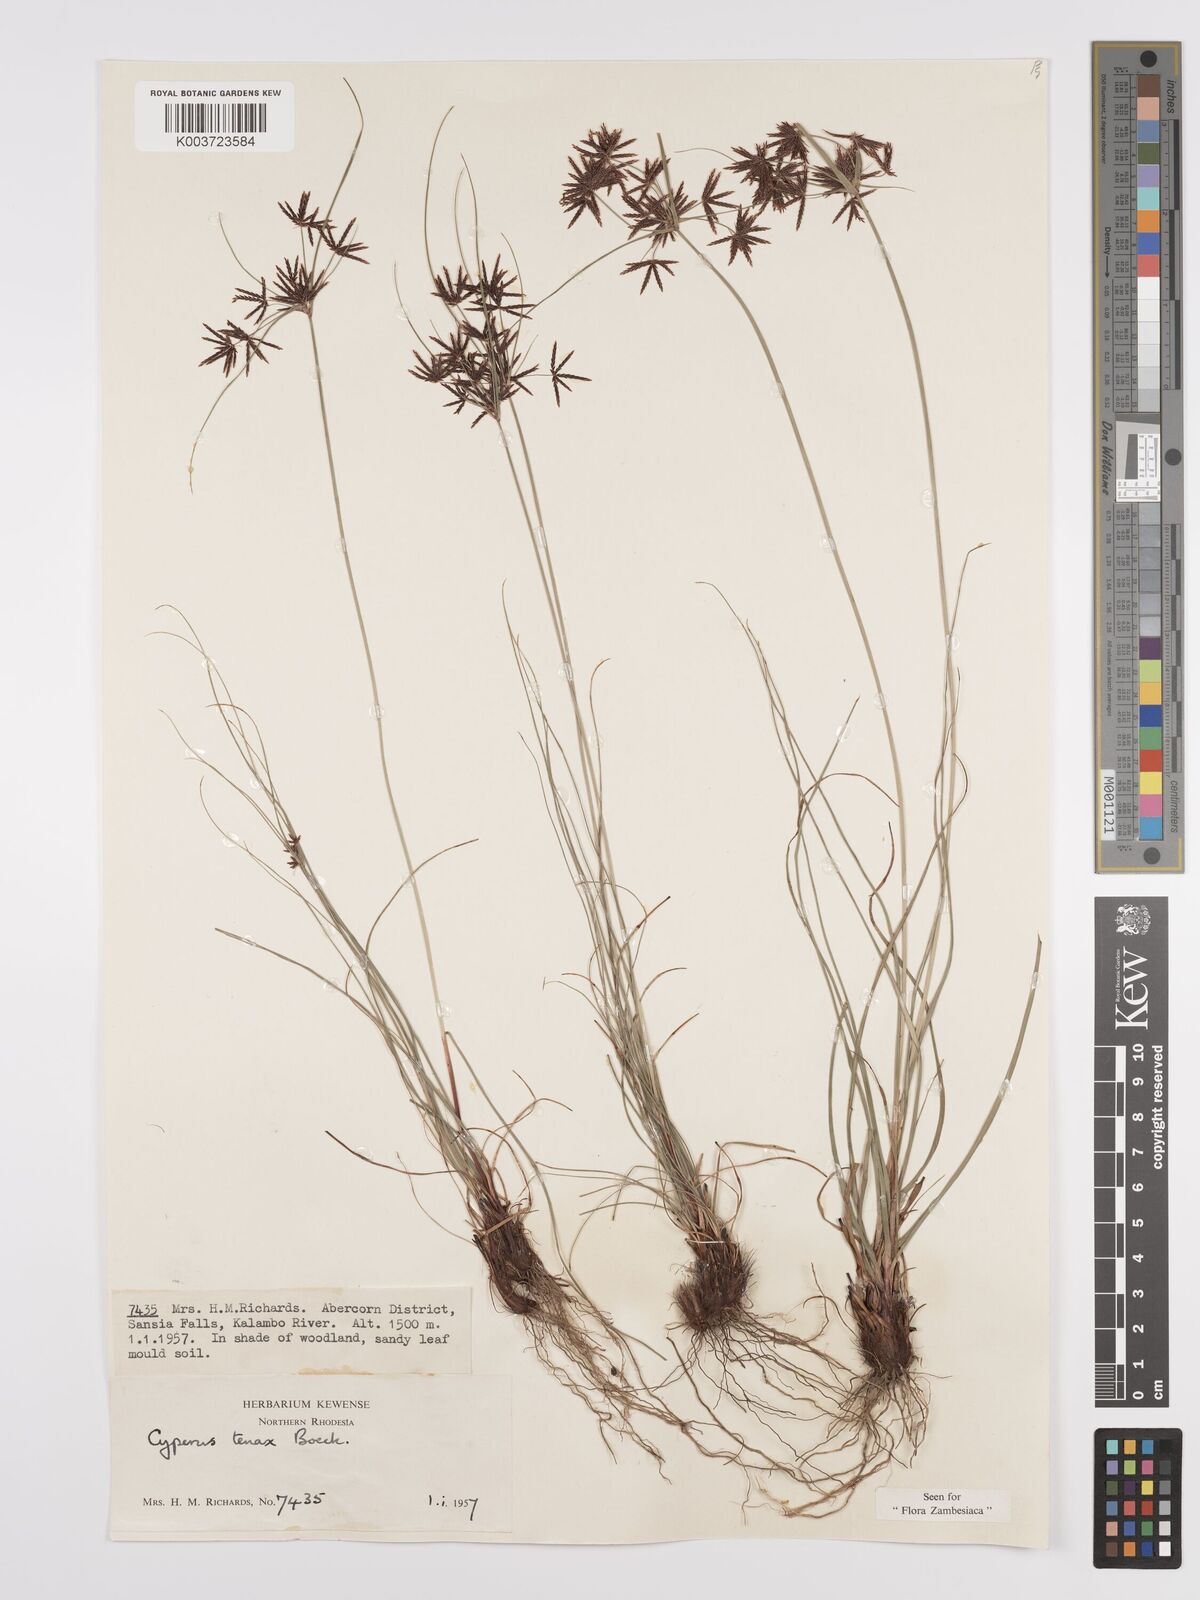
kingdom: Plantae
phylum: Tracheophyta
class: Liliopsida
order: Poales
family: Cyperaceae
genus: Cyperus
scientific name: Cyperus tenax
